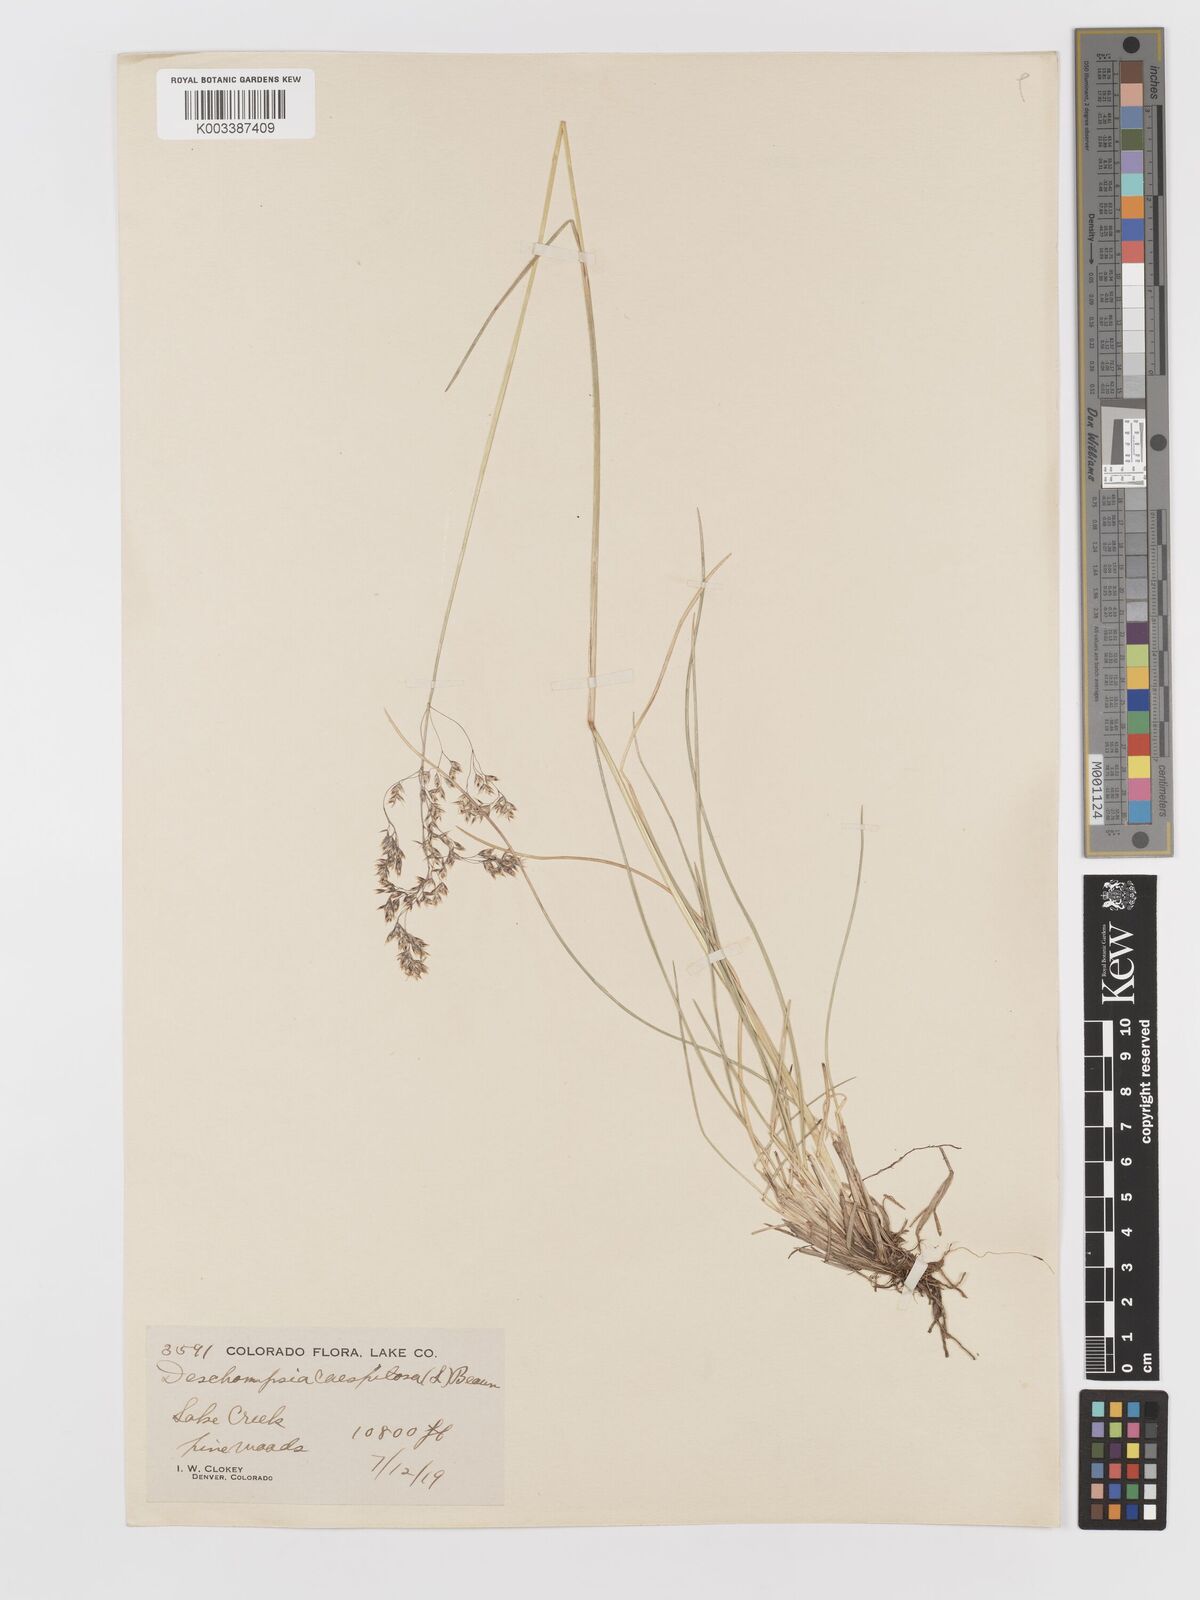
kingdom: Plantae
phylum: Tracheophyta
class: Liliopsida
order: Poales
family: Poaceae
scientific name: Poaceae
